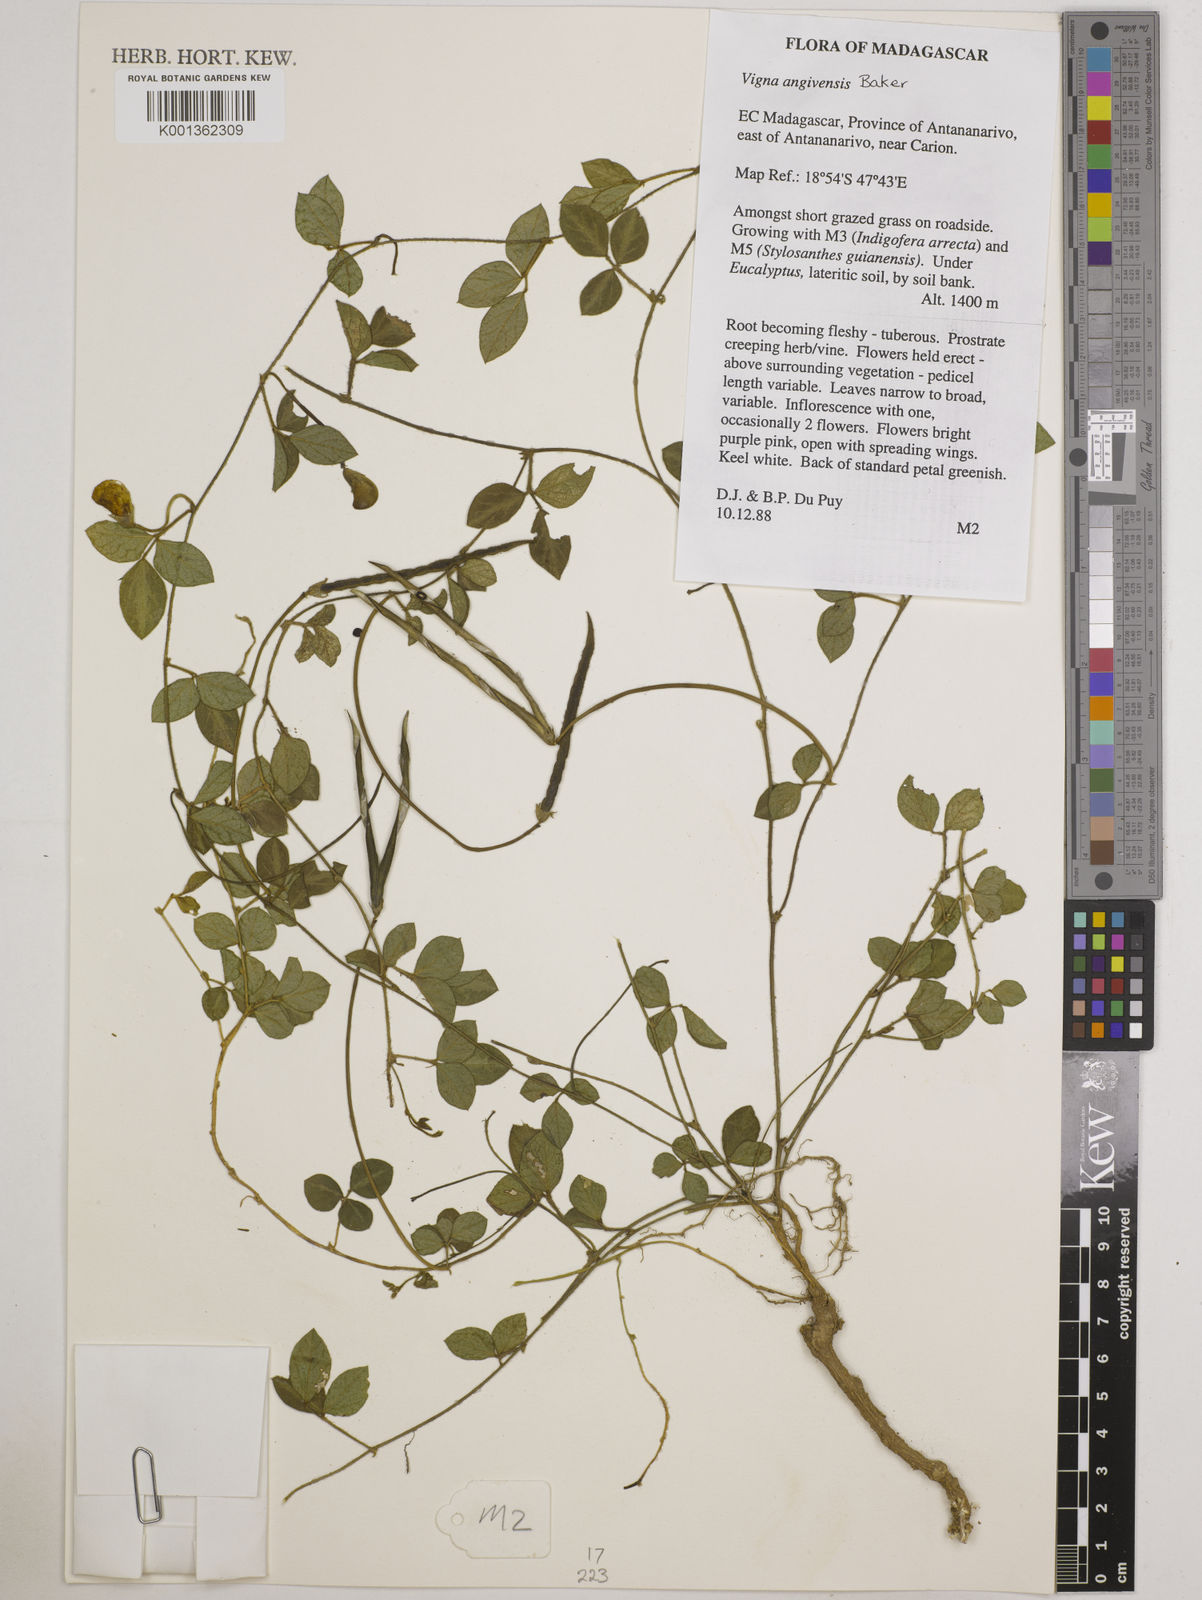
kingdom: Plantae
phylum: Tracheophyta
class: Magnoliopsida
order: Fabales
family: Fabaceae
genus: Vigna
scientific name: Vigna angivensis
